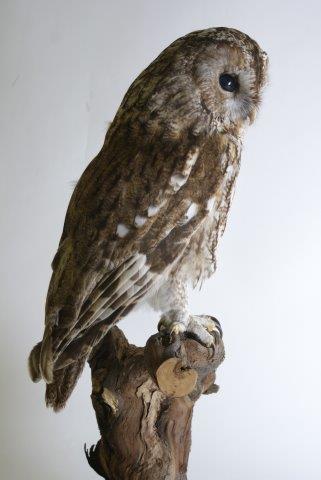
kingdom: Animalia
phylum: Chordata
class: Aves
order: Strigiformes
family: Strigidae
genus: Strix
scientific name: Strix aluco
